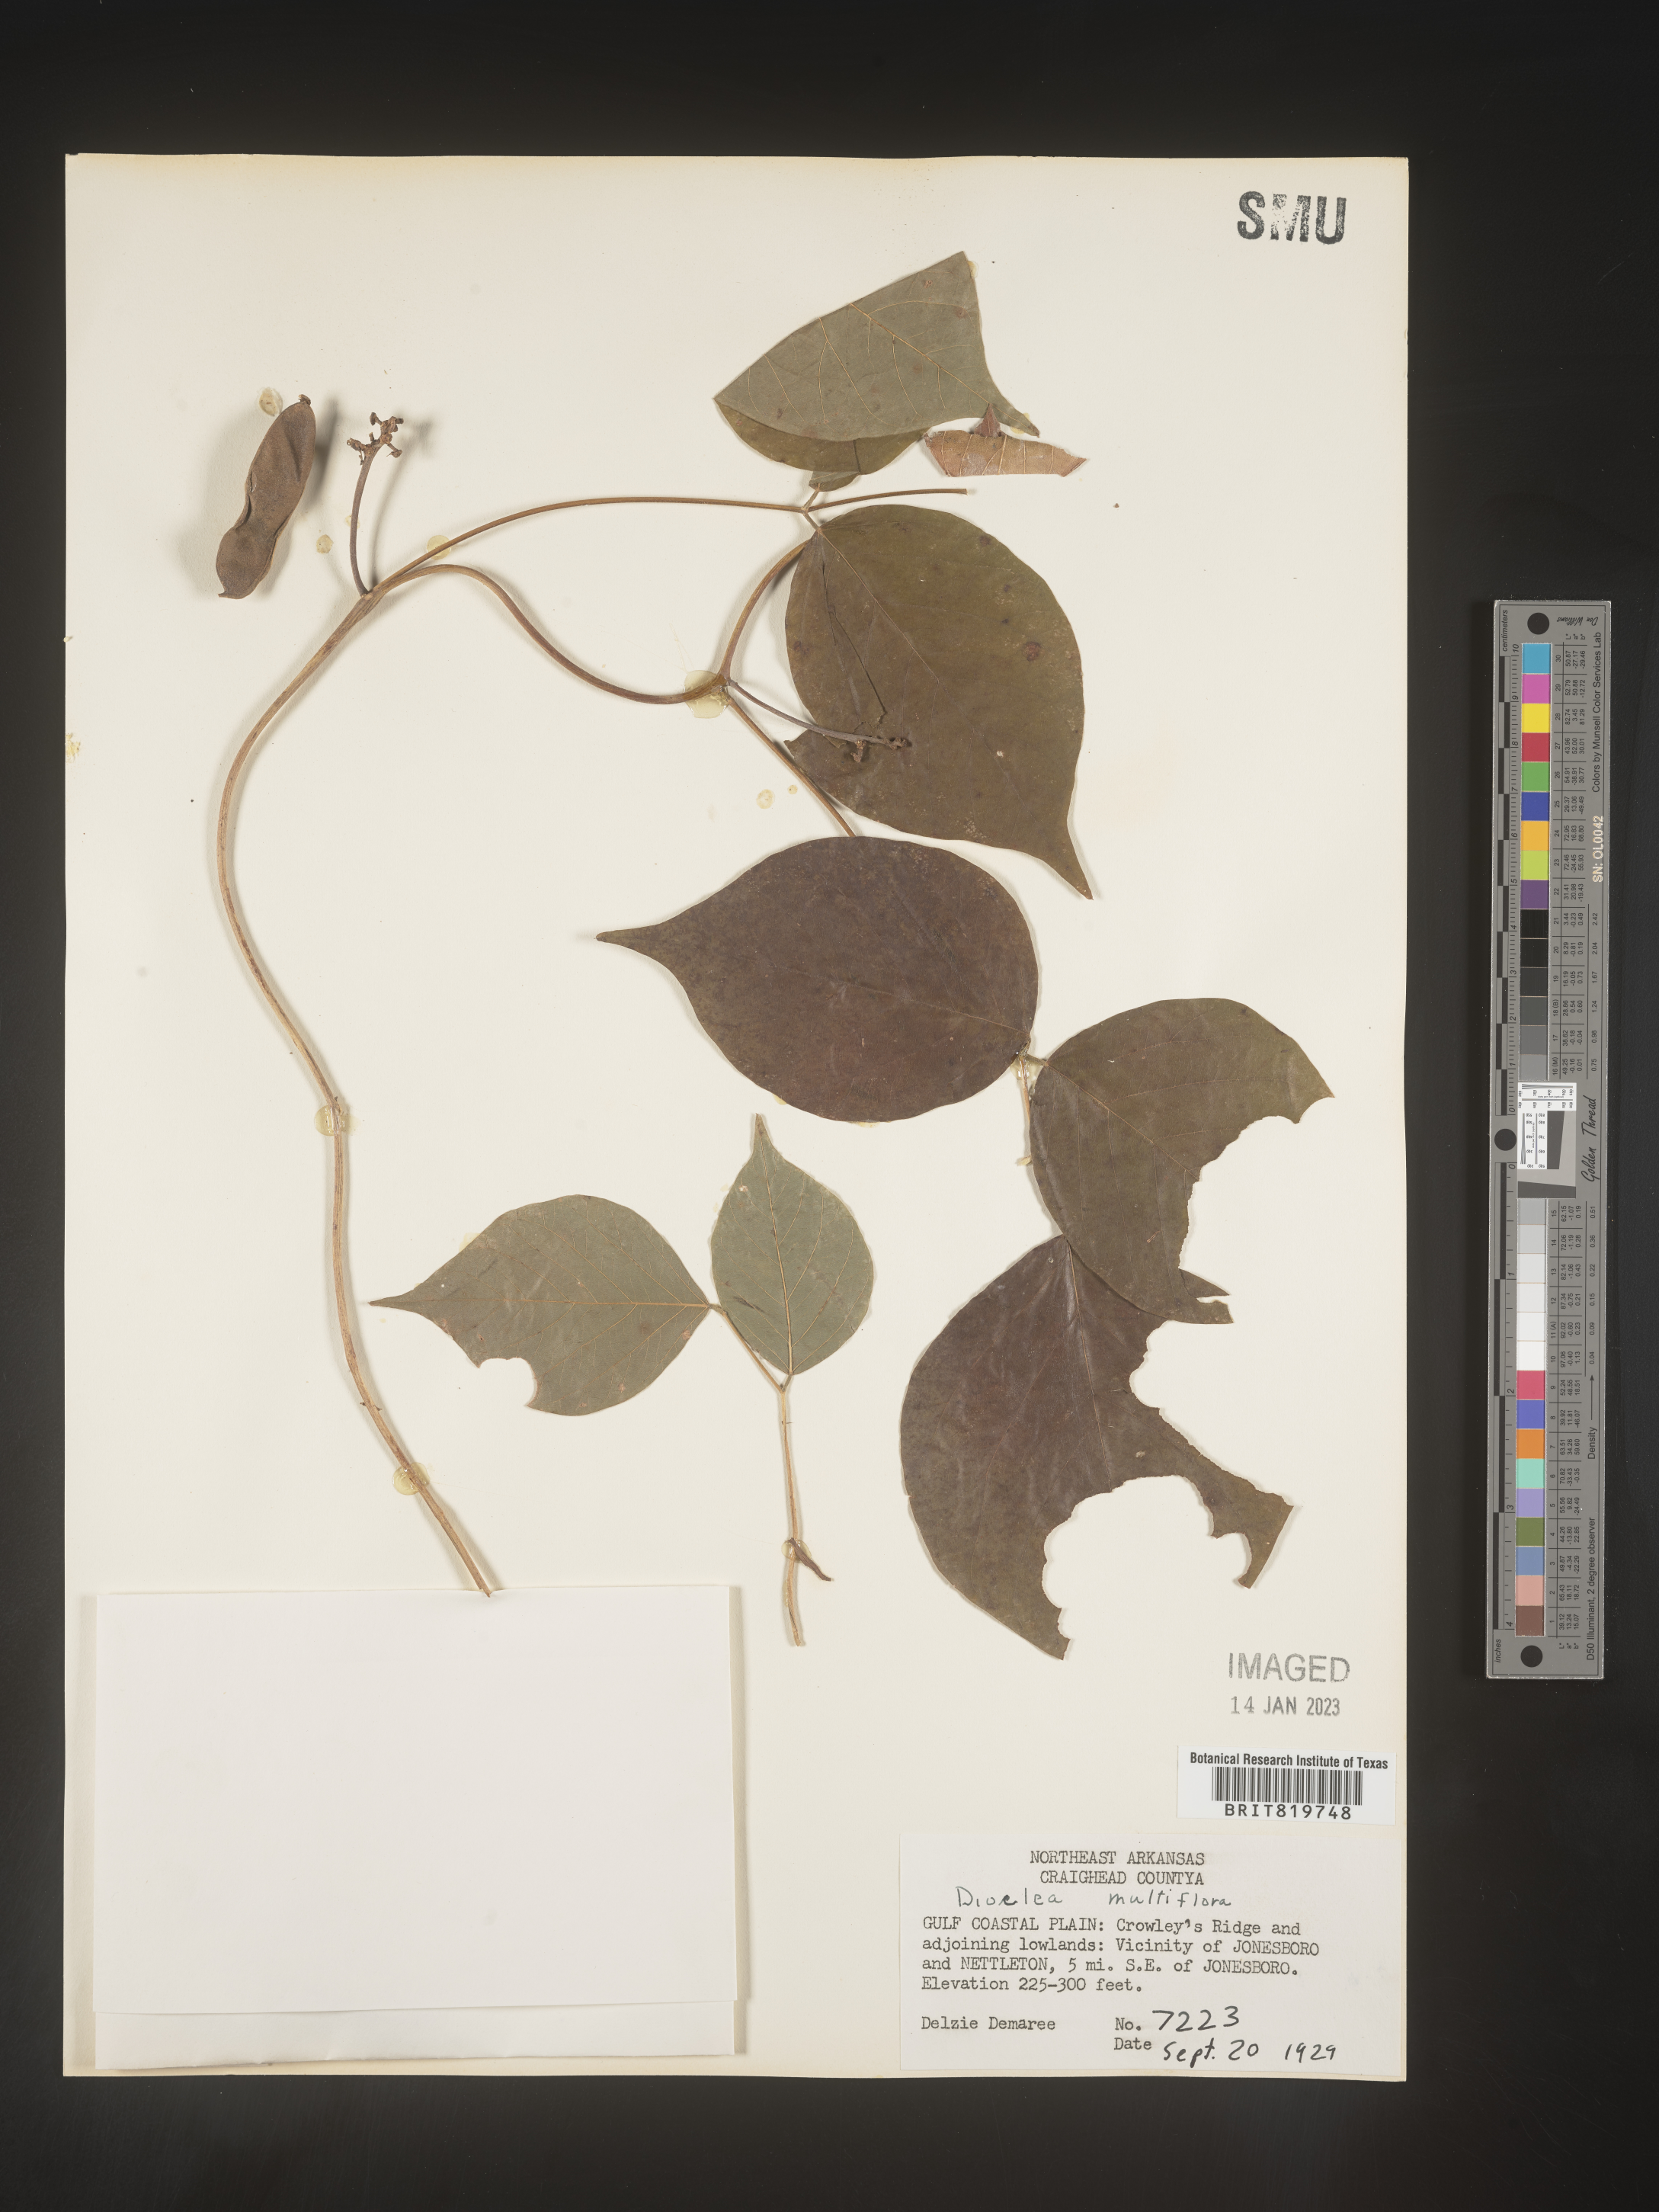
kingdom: Plantae
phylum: Tracheophyta
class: Magnoliopsida
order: Fabales
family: Fabaceae
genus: Dioclea
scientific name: Dioclea
